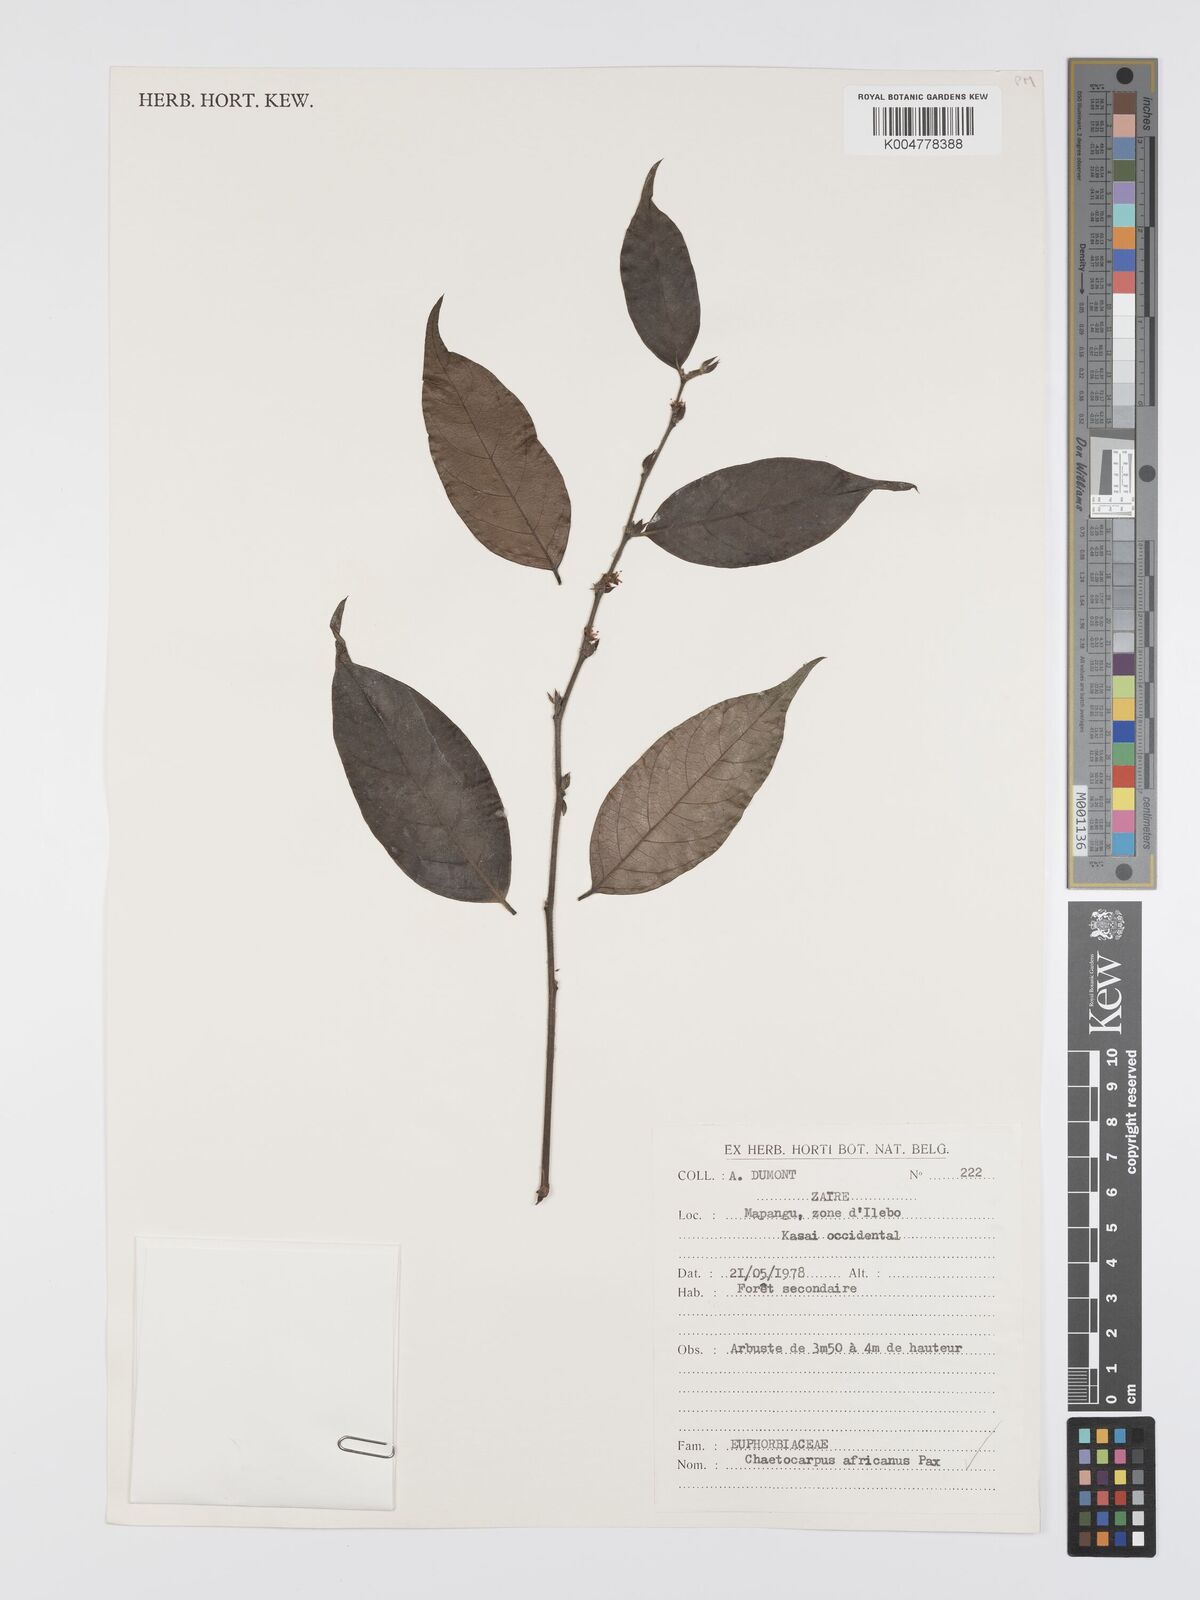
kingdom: Plantae
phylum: Tracheophyta
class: Magnoliopsida
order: Malpighiales
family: Peraceae
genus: Chaetocarpus
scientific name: Chaetocarpus africanus
